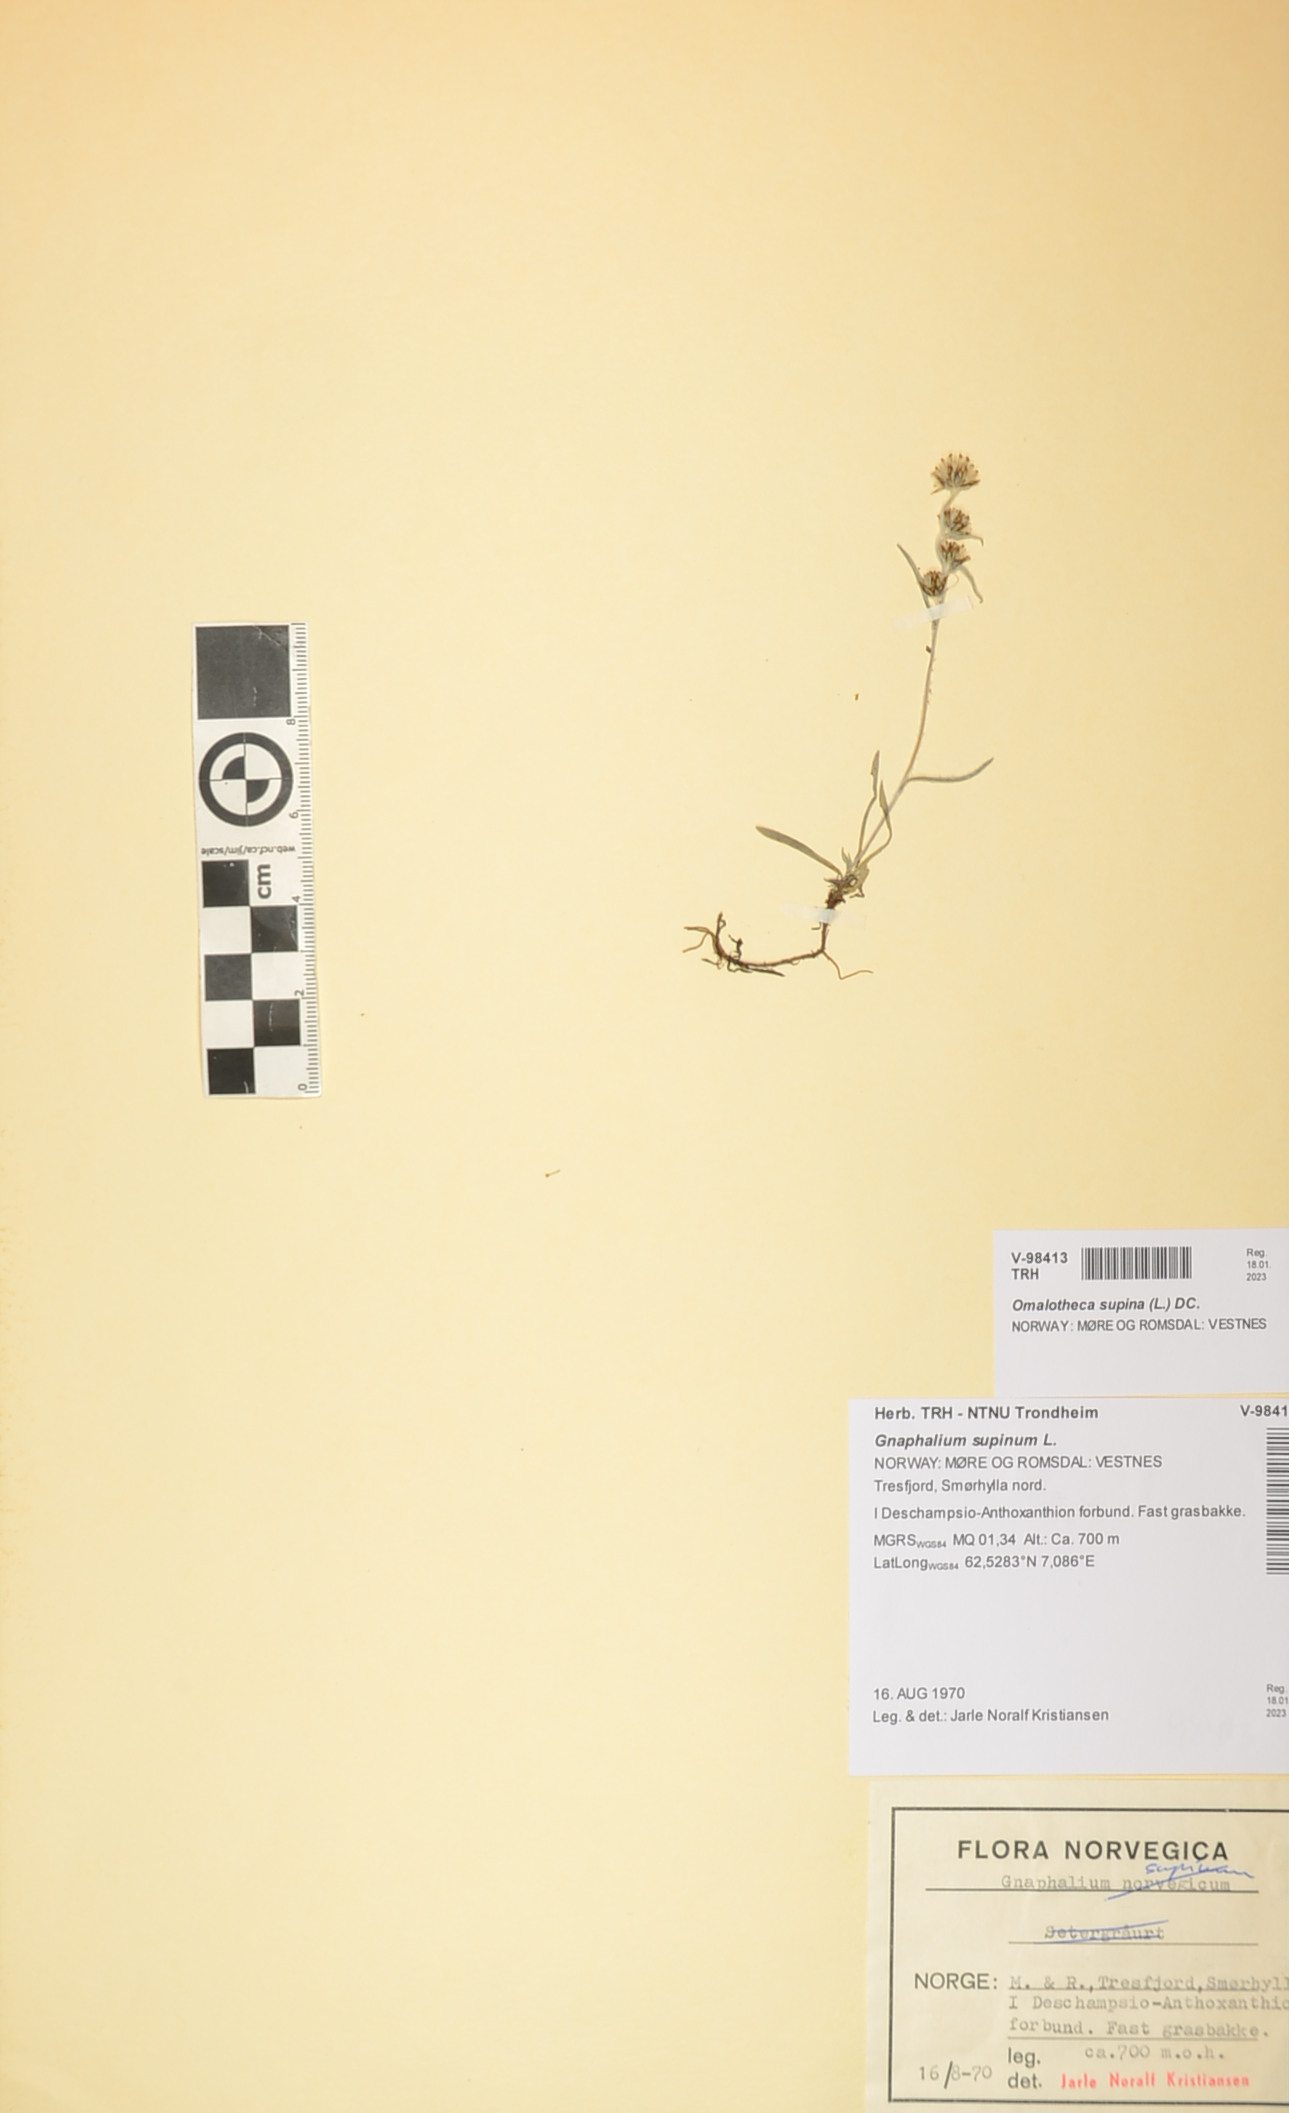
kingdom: Plantae
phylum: Tracheophyta
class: Magnoliopsida
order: Asterales
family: Asteraceae
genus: Omalotheca
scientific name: Omalotheca supina
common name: Alpine arctic-cudweed
